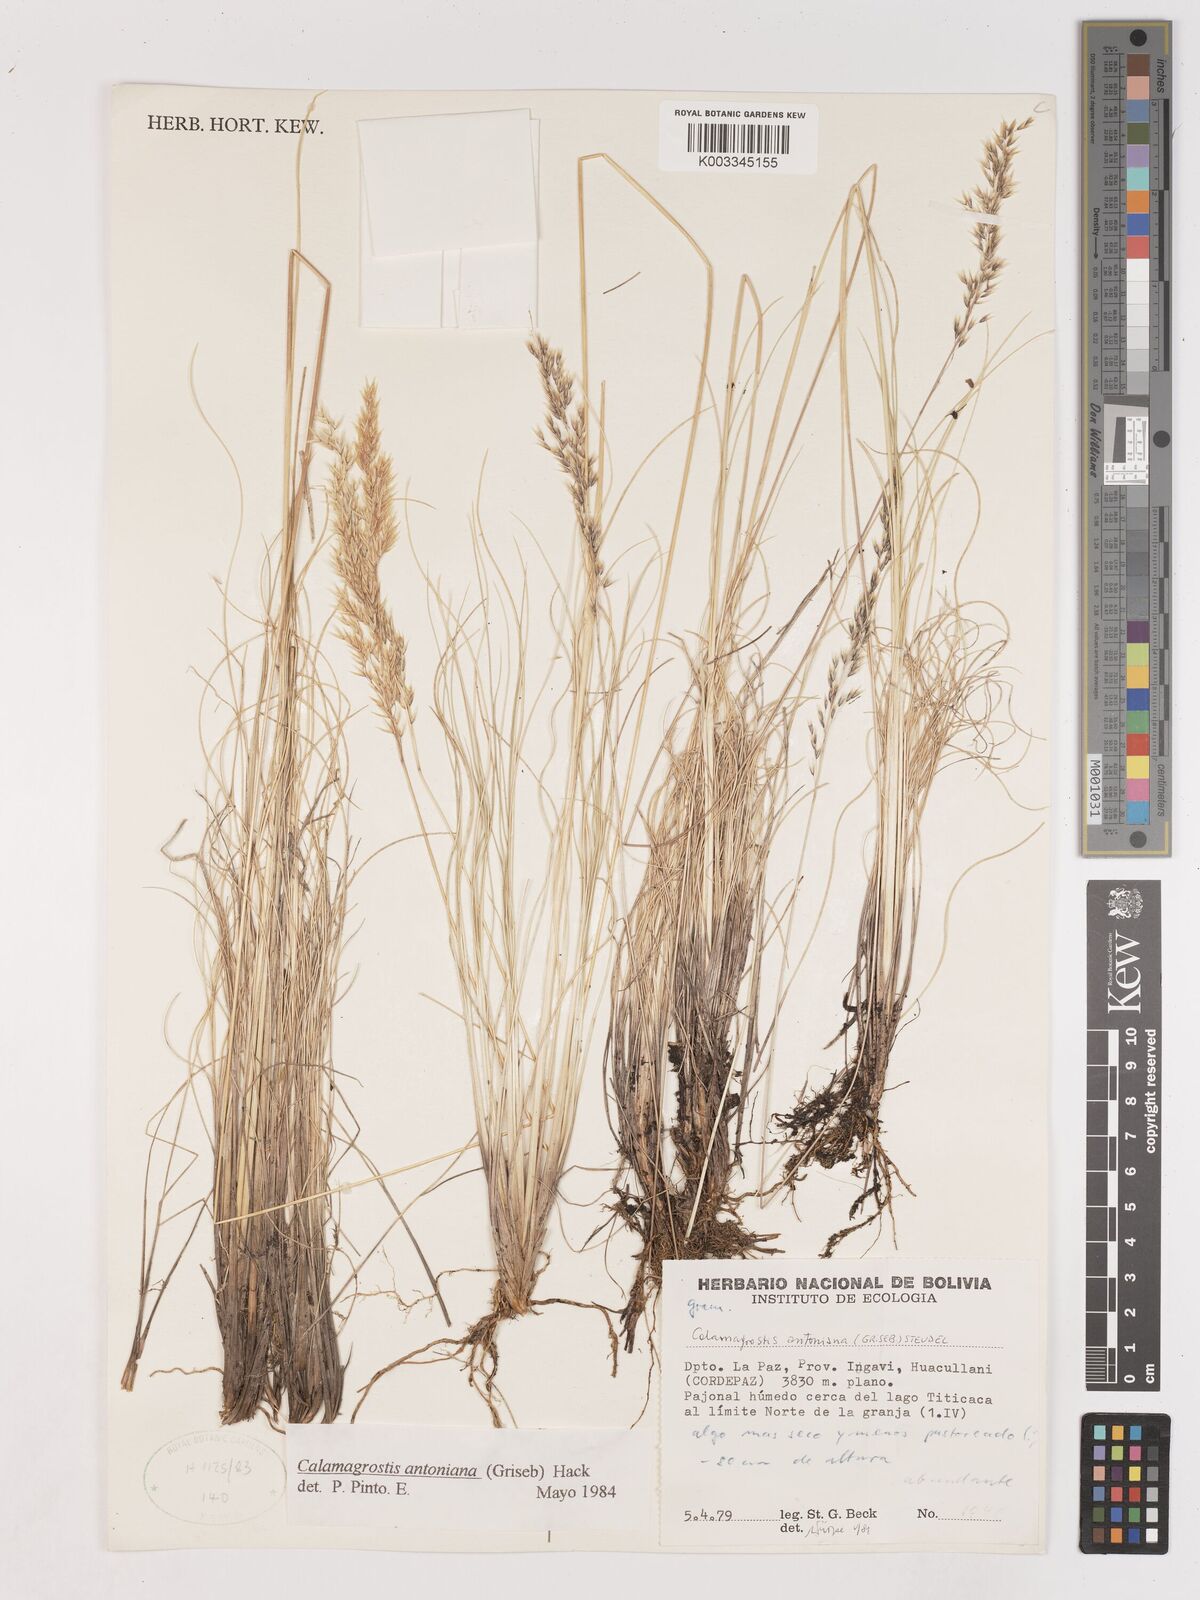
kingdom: Plantae
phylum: Tracheophyta
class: Liliopsida
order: Poales
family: Poaceae
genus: Calamagrostis
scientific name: Calamagrostis
